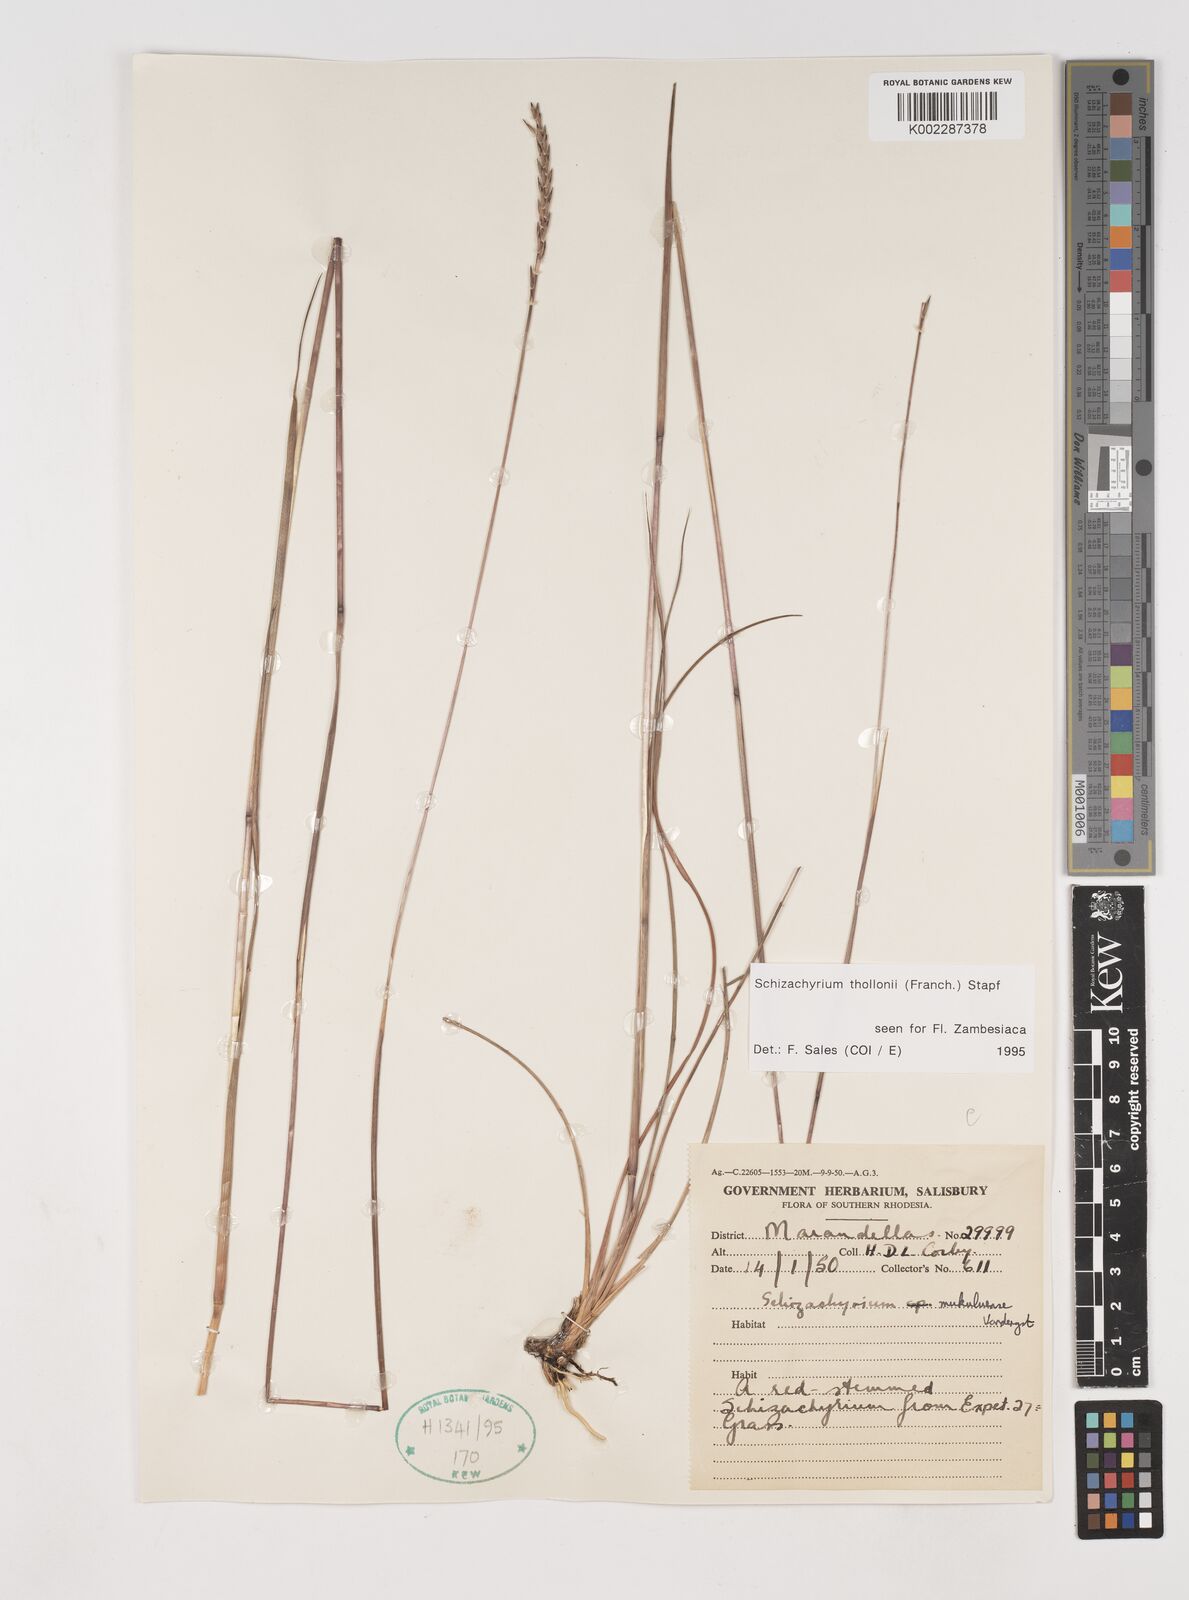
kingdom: Plantae
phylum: Tracheophyta
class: Liliopsida
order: Poales
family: Poaceae
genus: Schizachyrium
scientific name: Schizachyrium thollonii
